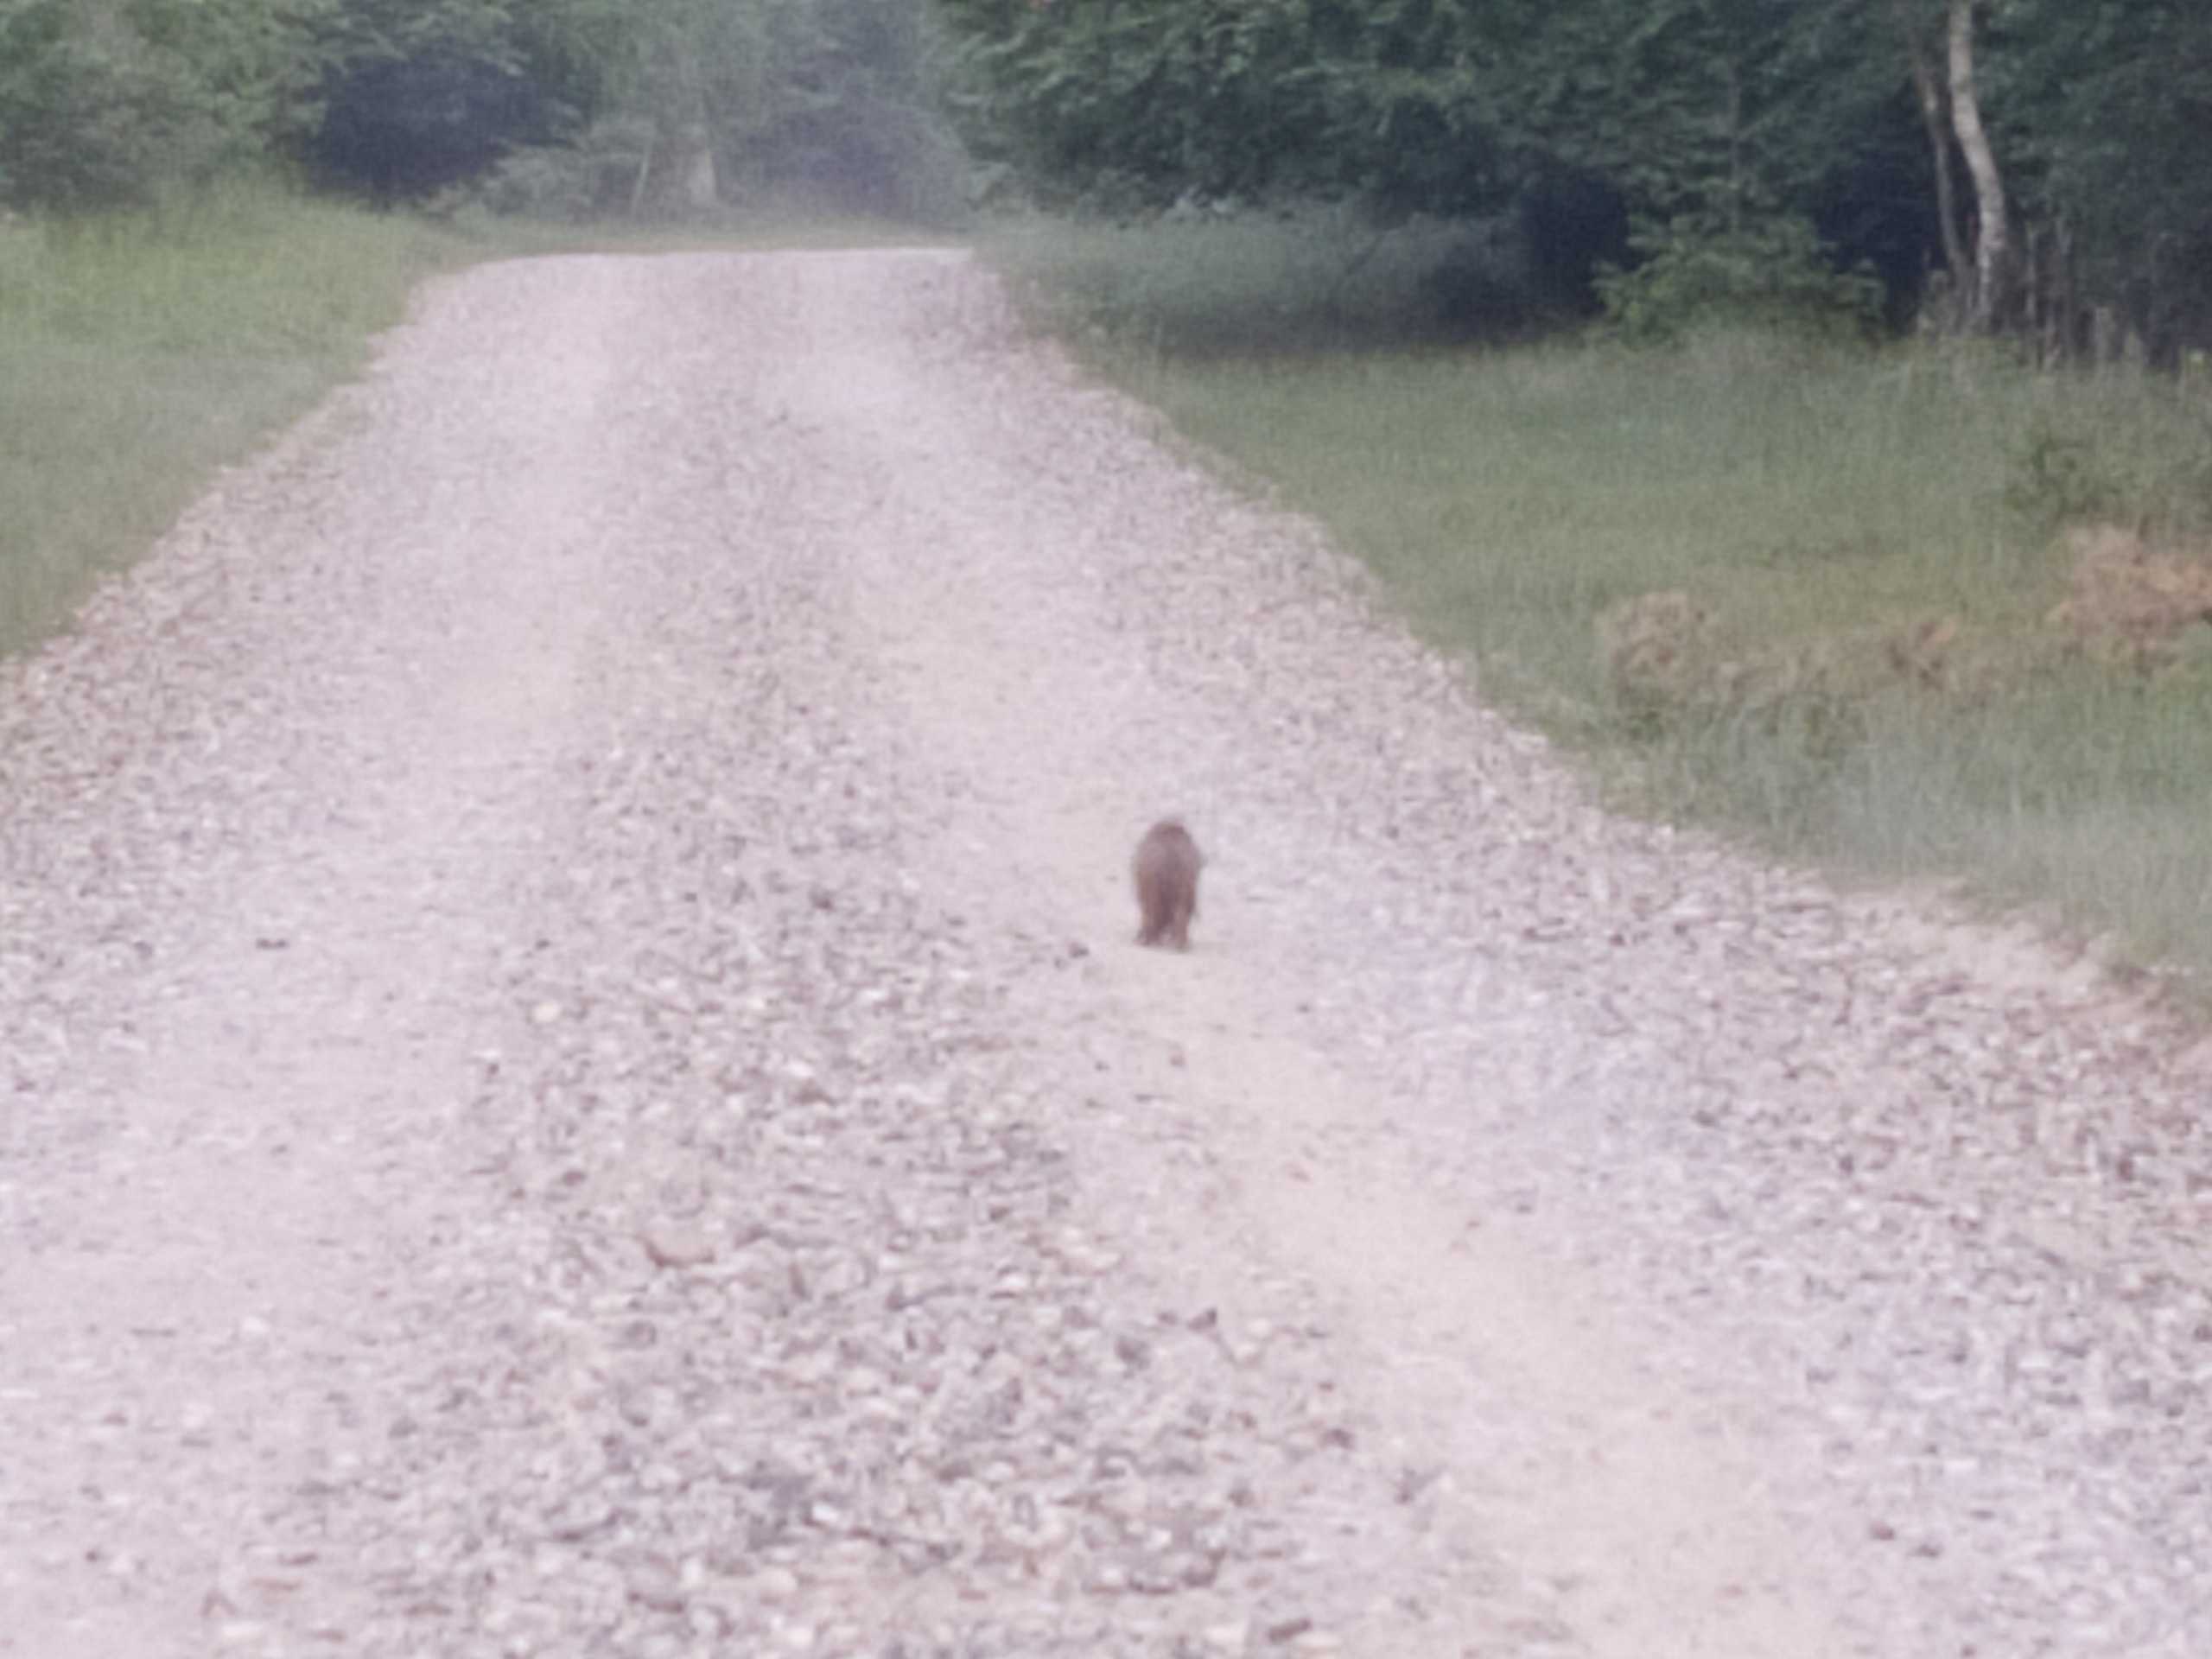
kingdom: Animalia
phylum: Chordata
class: Mammalia
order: Carnivora
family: Canidae
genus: Vulpes
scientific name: Vulpes vulpes
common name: Ræv
